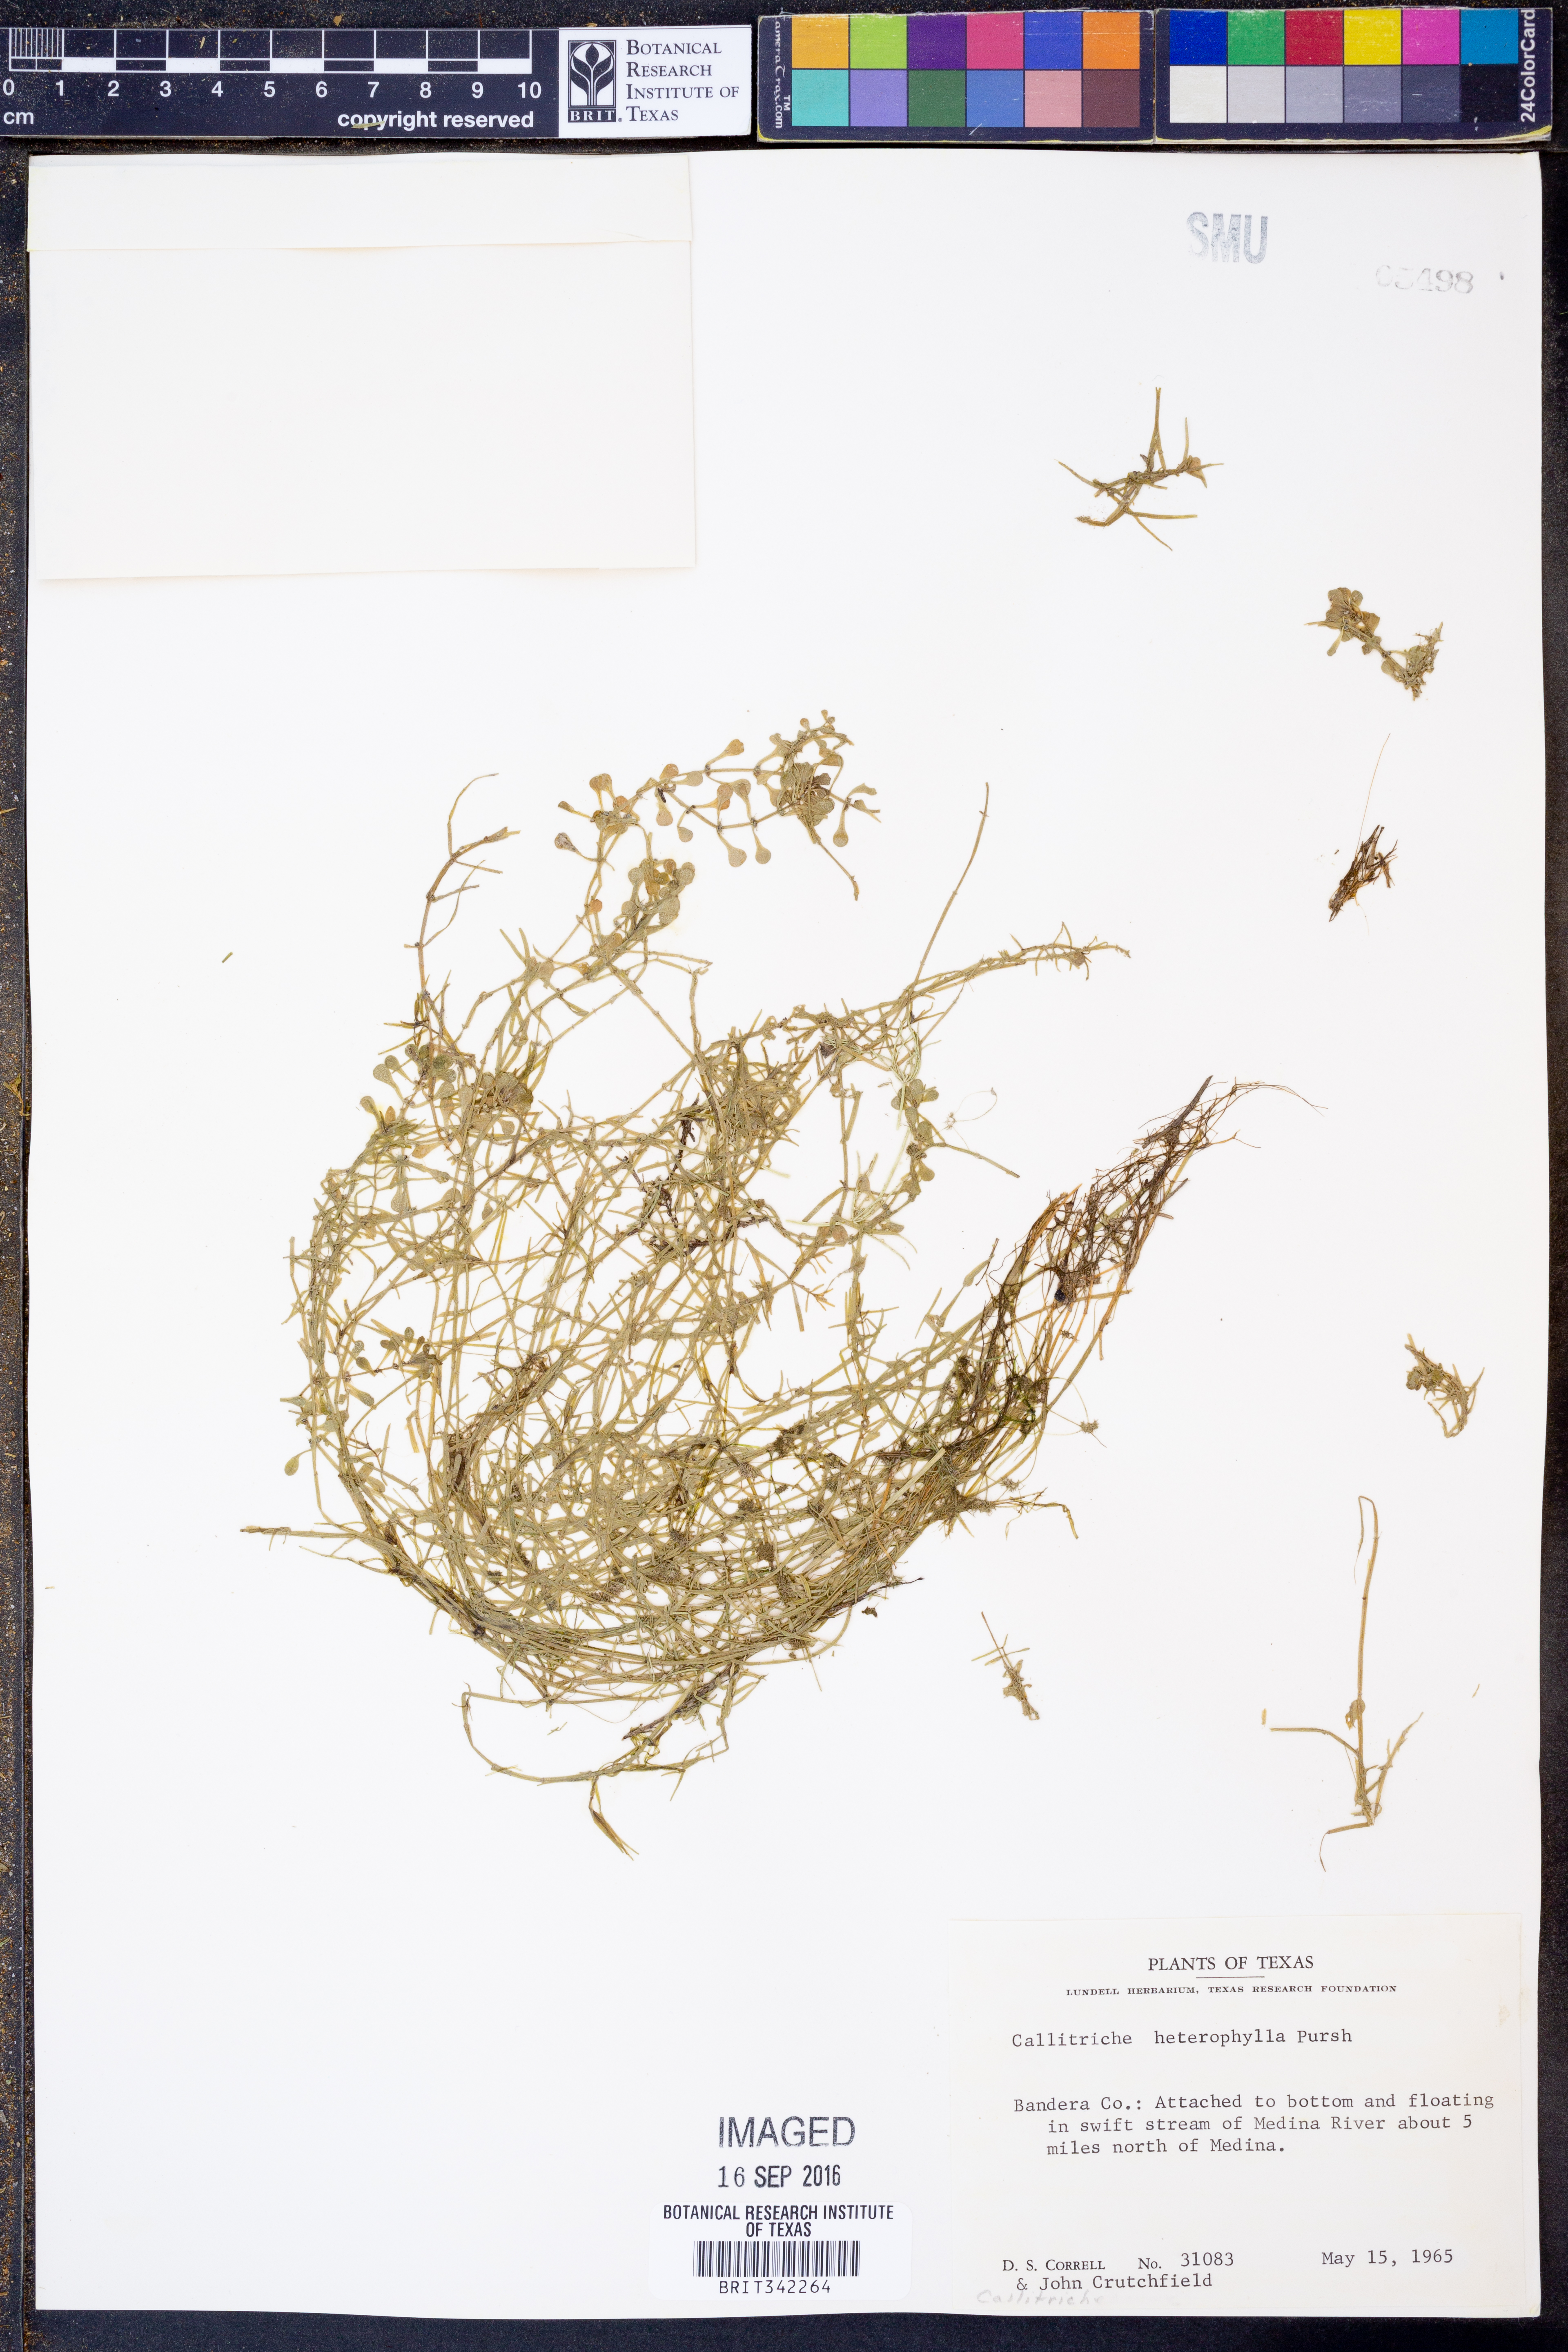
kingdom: Plantae
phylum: Tracheophyta
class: Magnoliopsida
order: Lamiales
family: Plantaginaceae
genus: Callitriche
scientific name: Callitriche heterophylla
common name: Two-headed water-starwort
